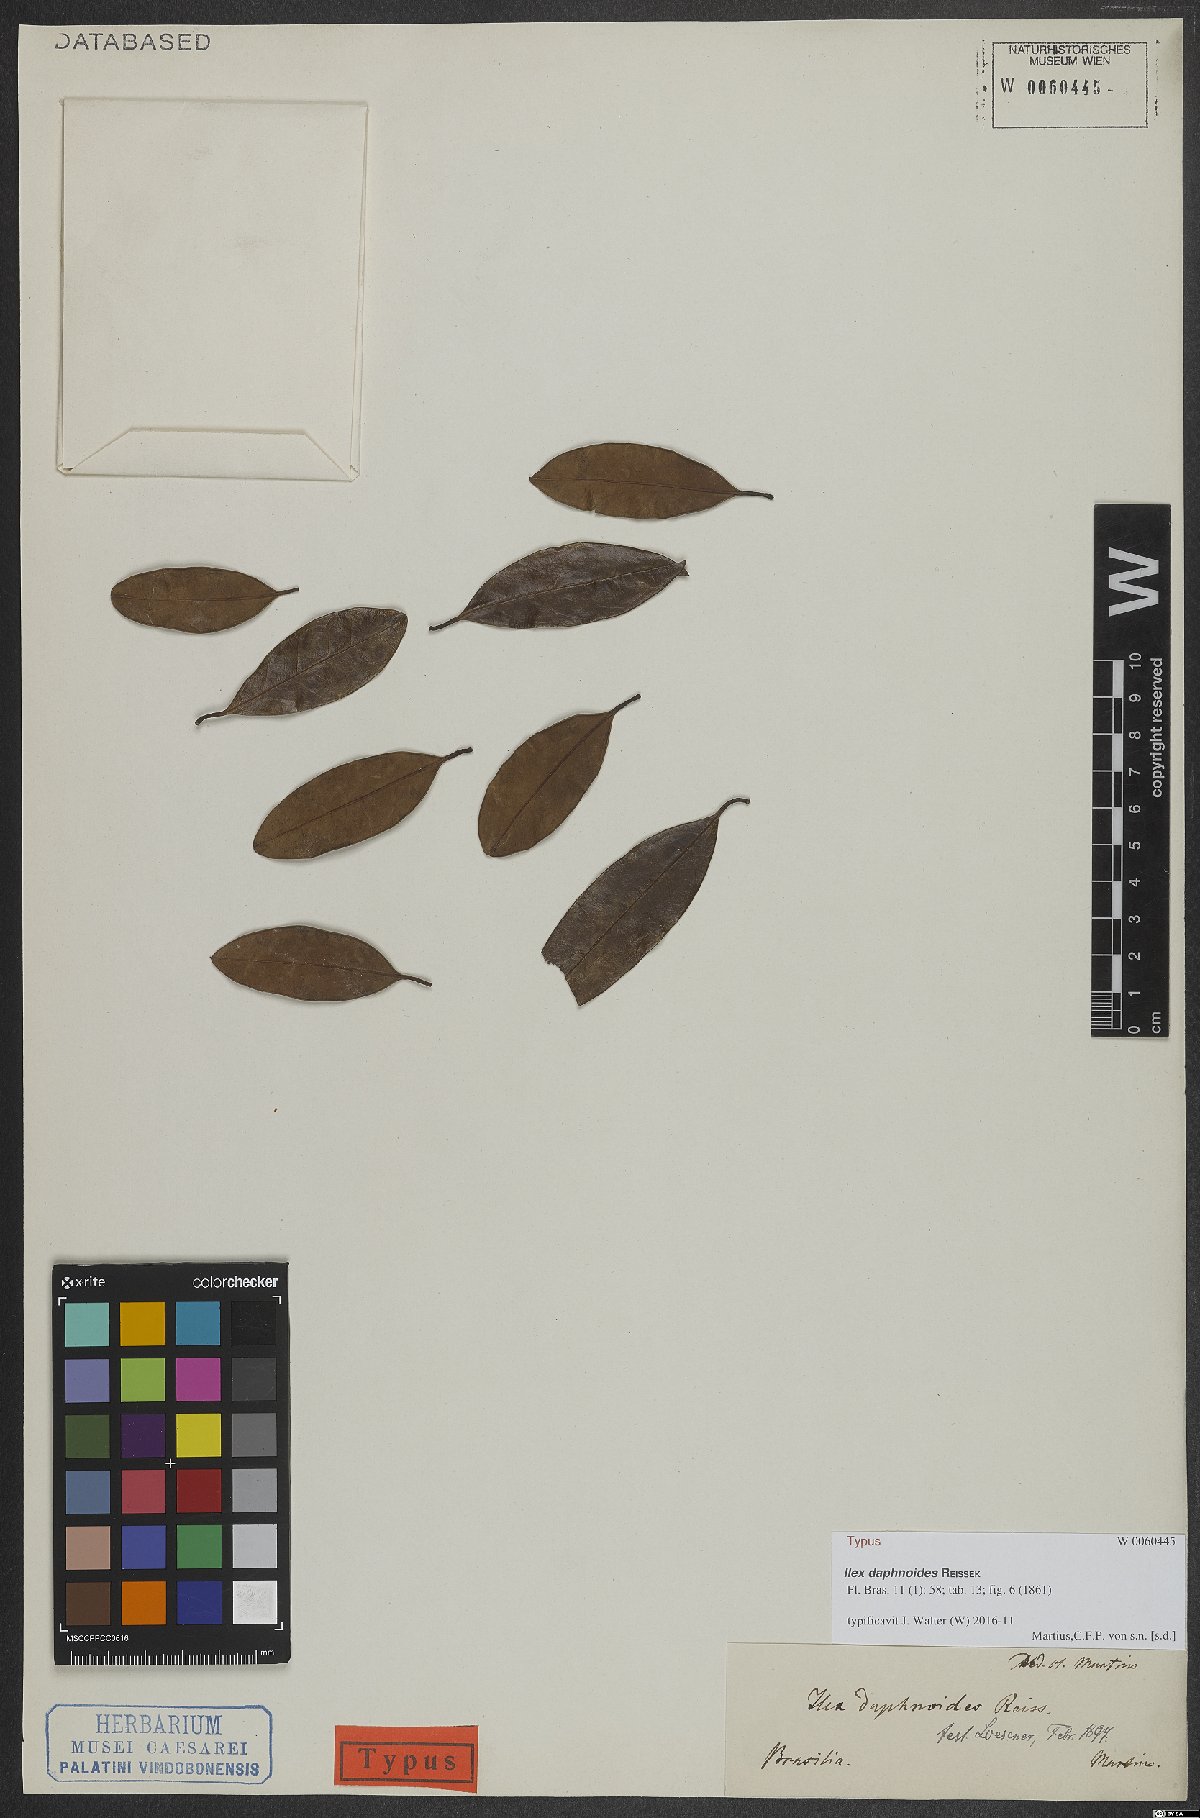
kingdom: Plantae
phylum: Tracheophyta
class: Magnoliopsida
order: Aquifoliales
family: Aquifoliaceae
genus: Ilex
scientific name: Ilex daphnoides
